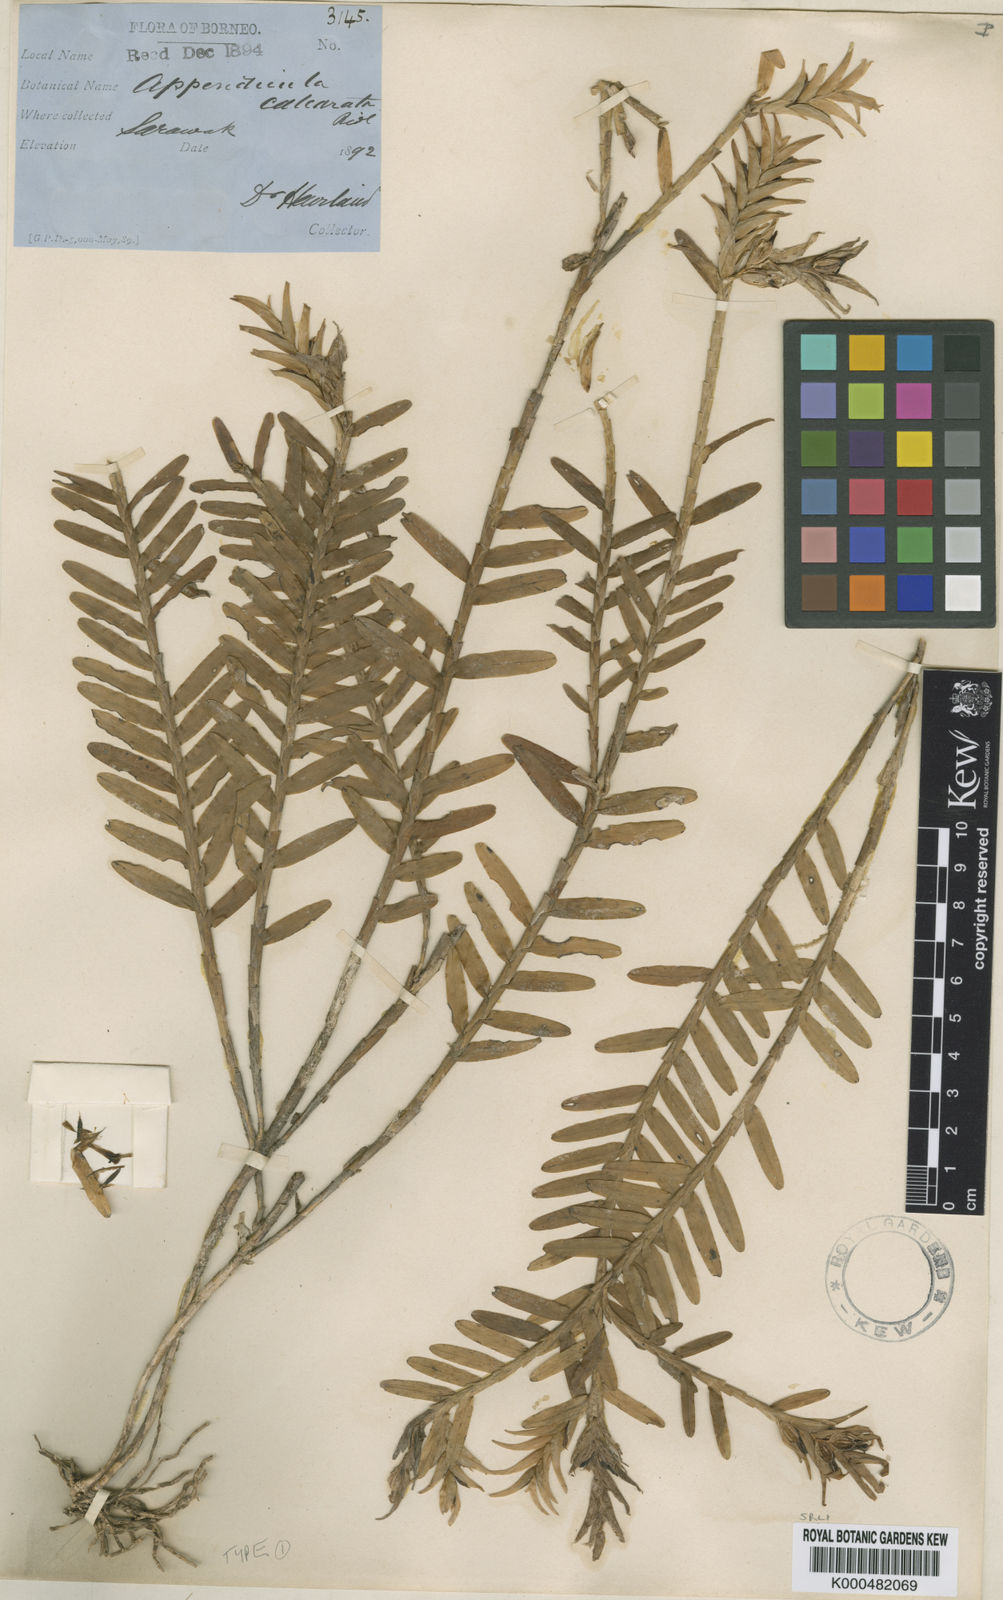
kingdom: Plantae
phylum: Tracheophyta
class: Liliopsida
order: Asparagales
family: Orchidaceae
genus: Appendicula
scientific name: Appendicula calcarata
